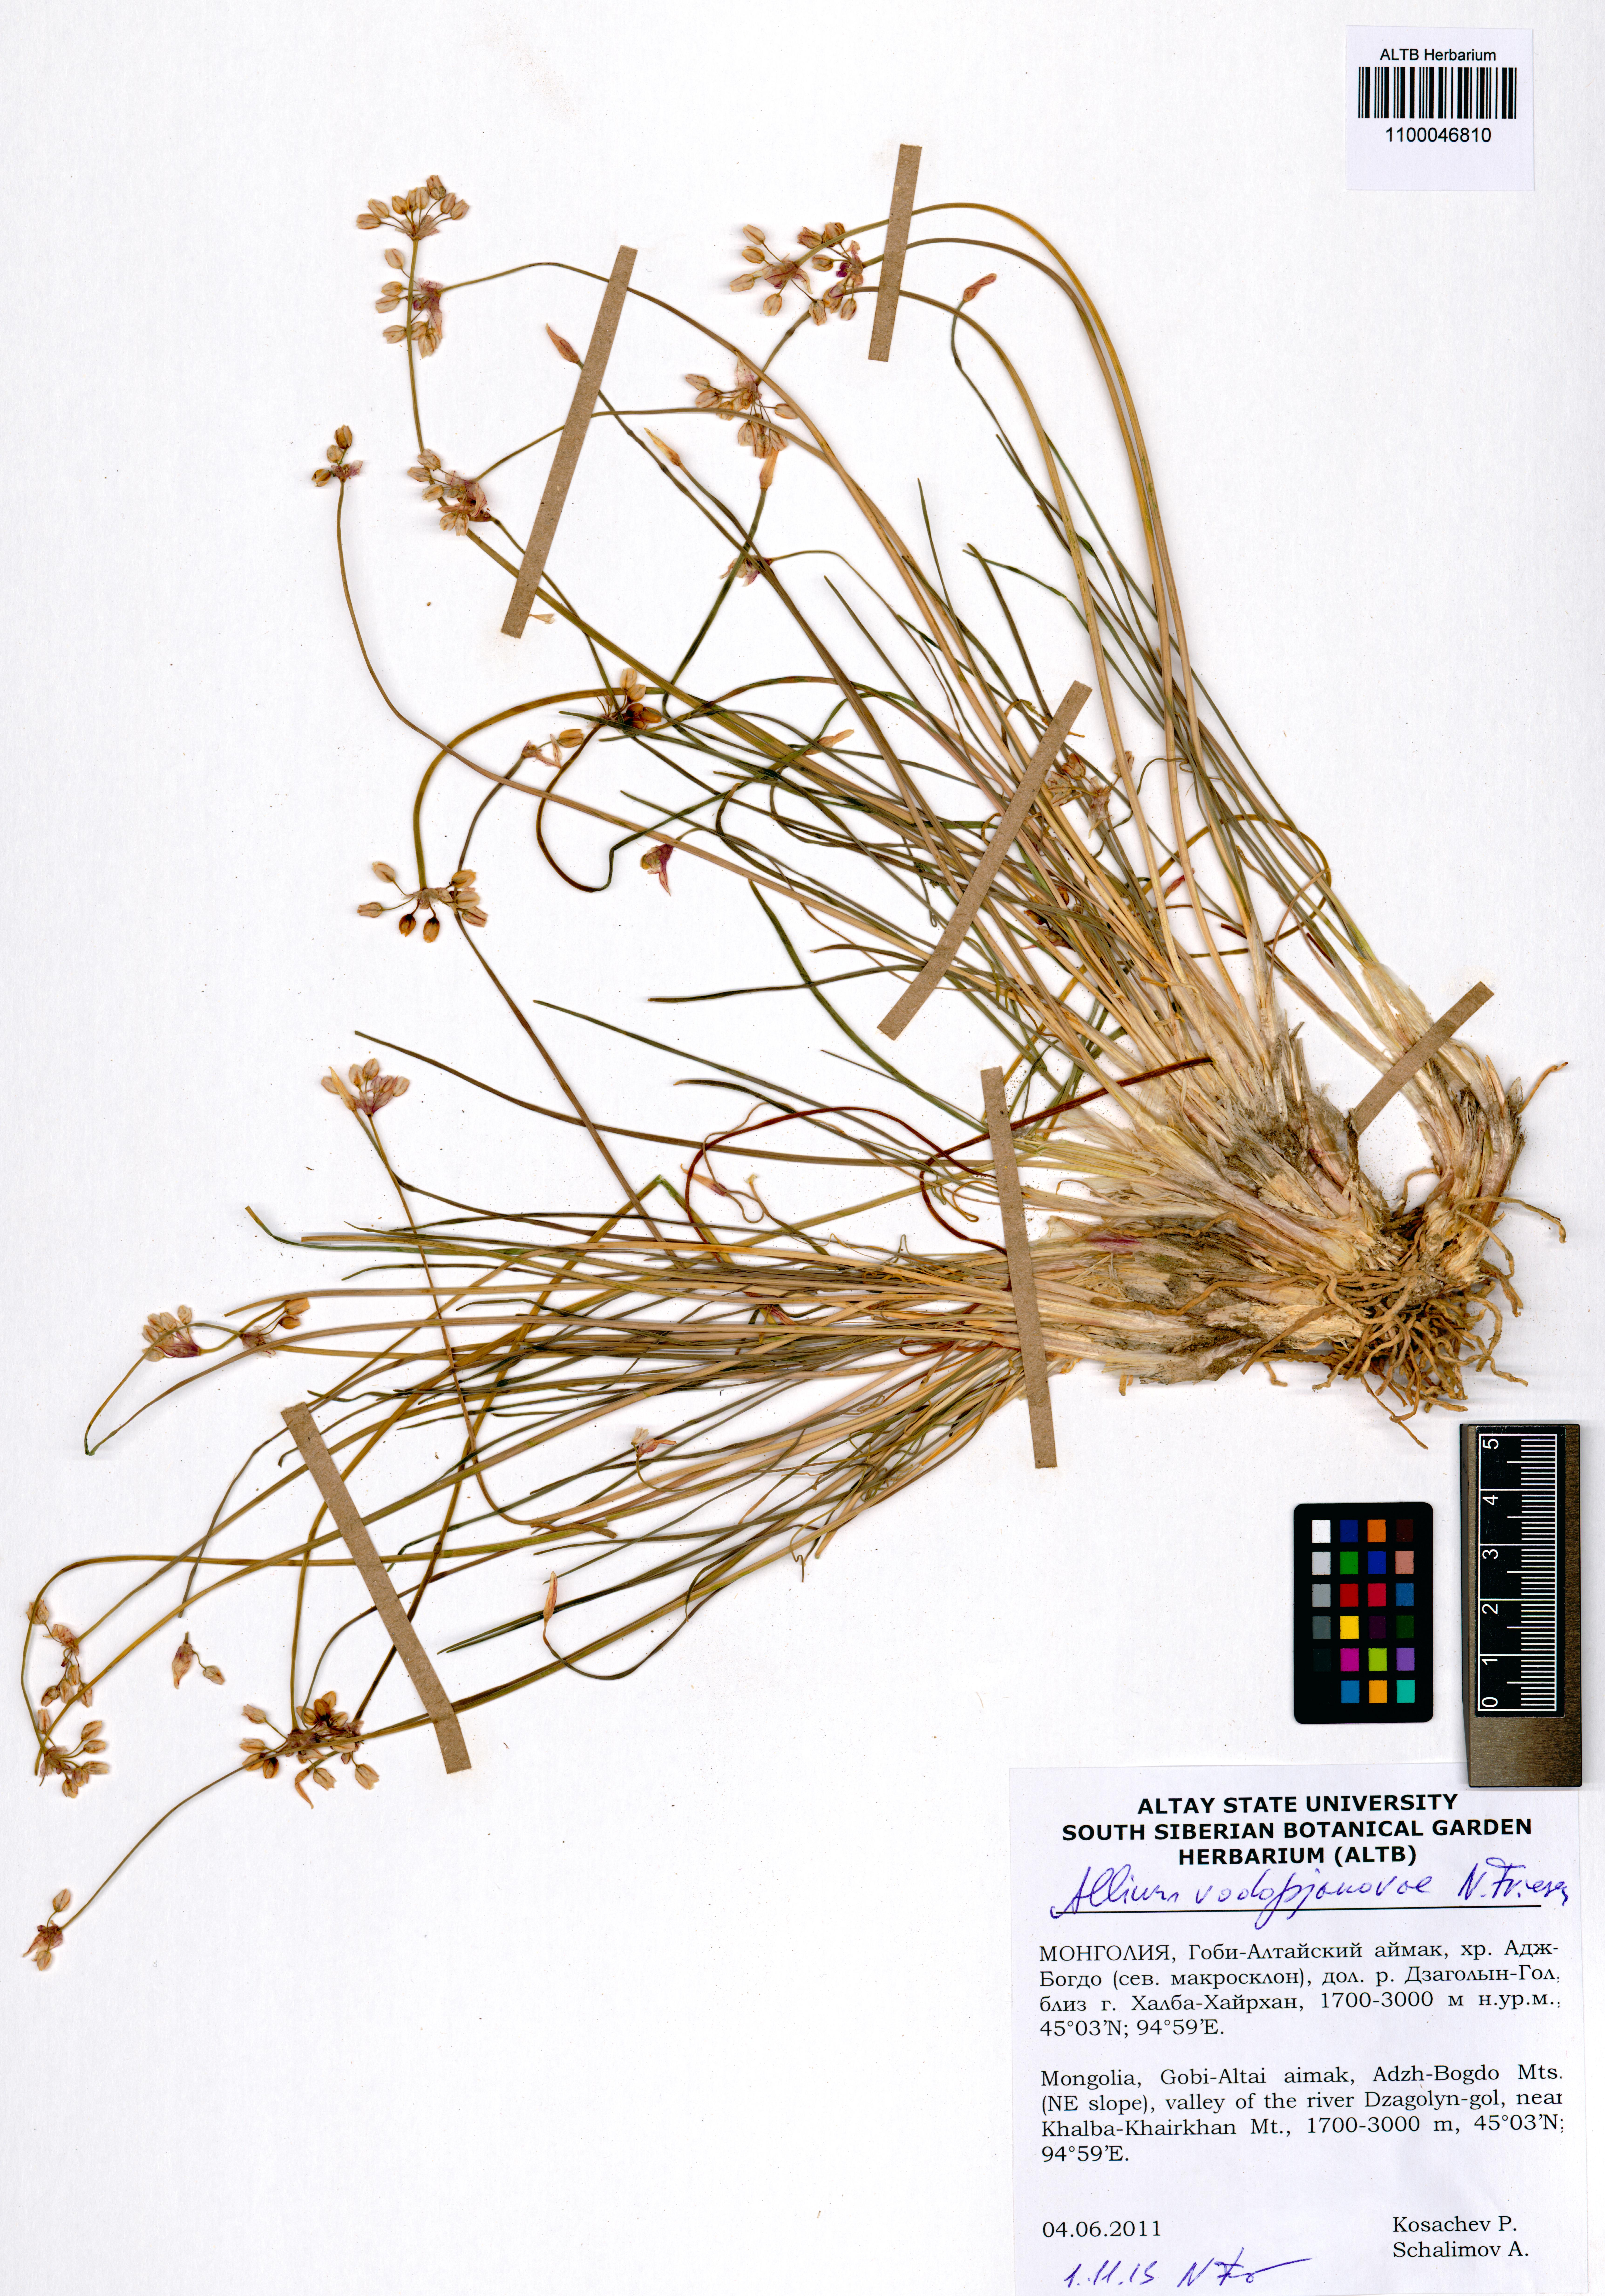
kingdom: Plantae
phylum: Tracheophyta
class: Liliopsida
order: Asparagales
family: Amaryllidaceae
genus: Allium
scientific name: Allium vodopjanovae
